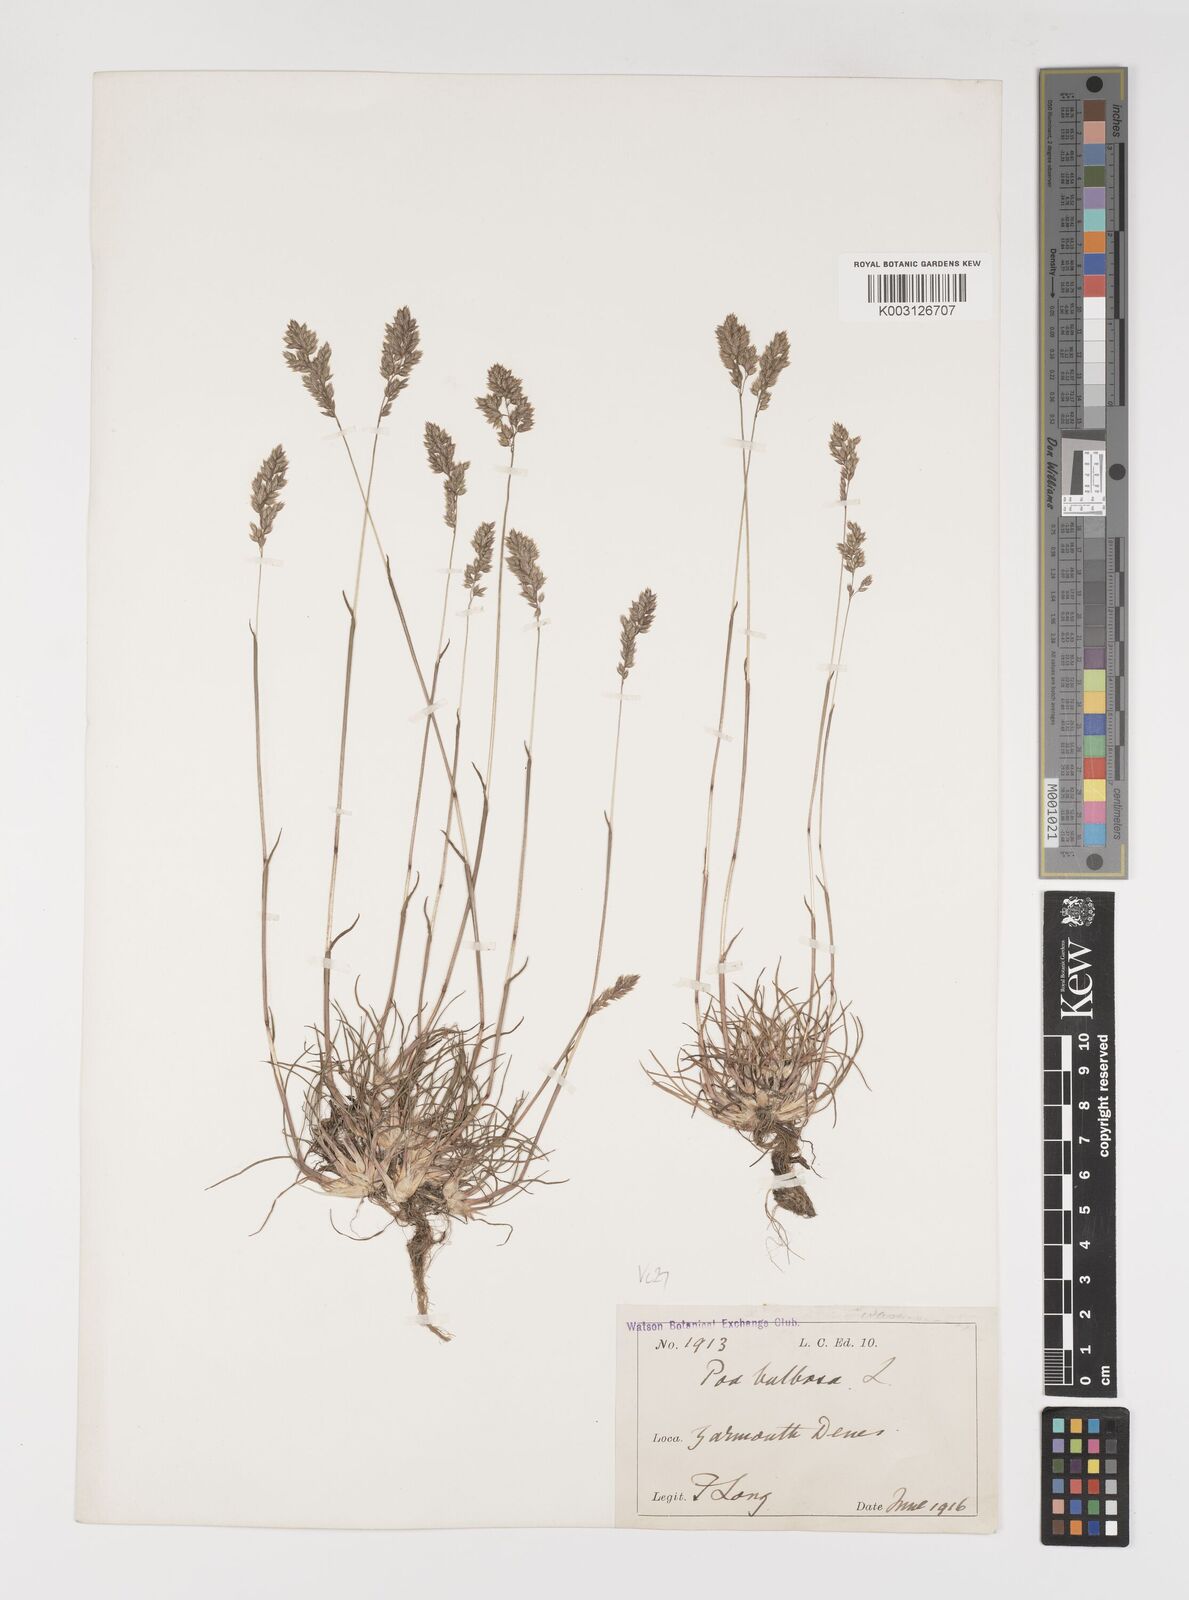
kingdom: Plantae
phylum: Tracheophyta
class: Liliopsida
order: Poales
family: Poaceae
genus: Poa
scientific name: Poa bulbosa
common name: Bulbous bluegrass
